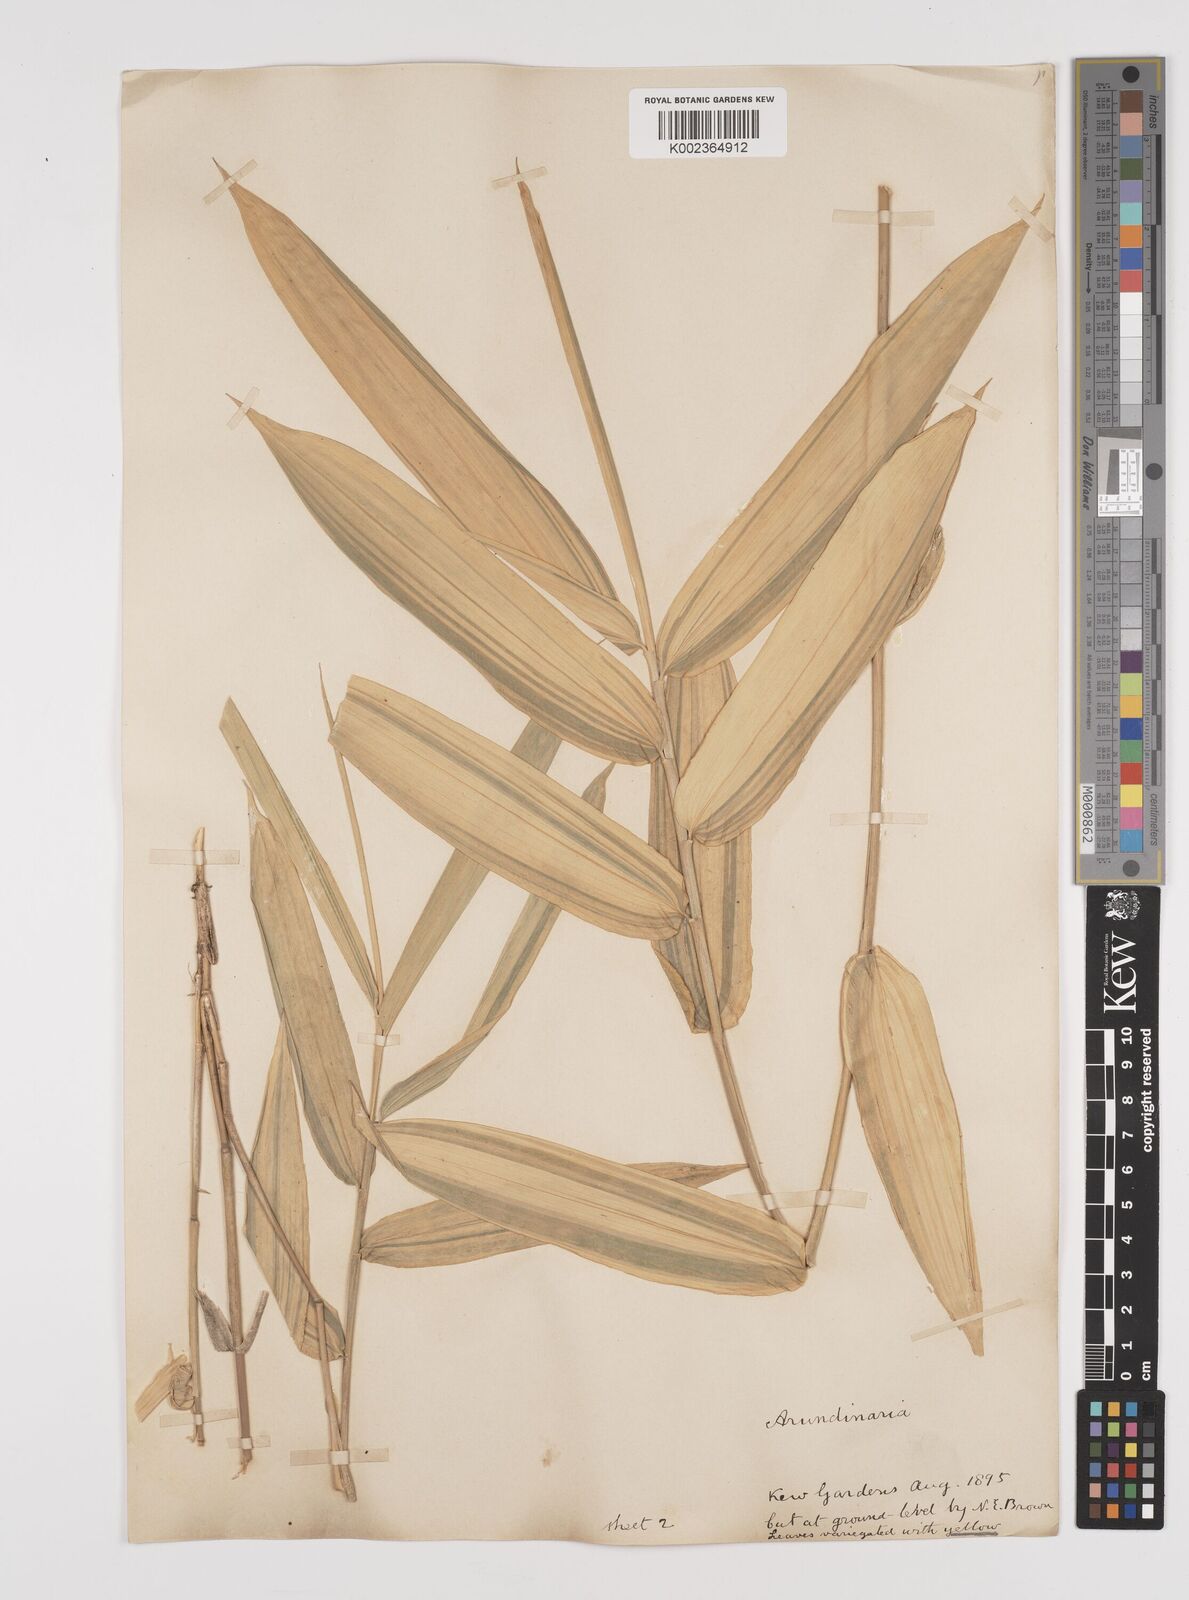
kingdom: Plantae
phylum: Tracheophyta
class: Liliopsida
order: Poales
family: Poaceae
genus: Pleioblastus
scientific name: Pleioblastus viridistriatus
